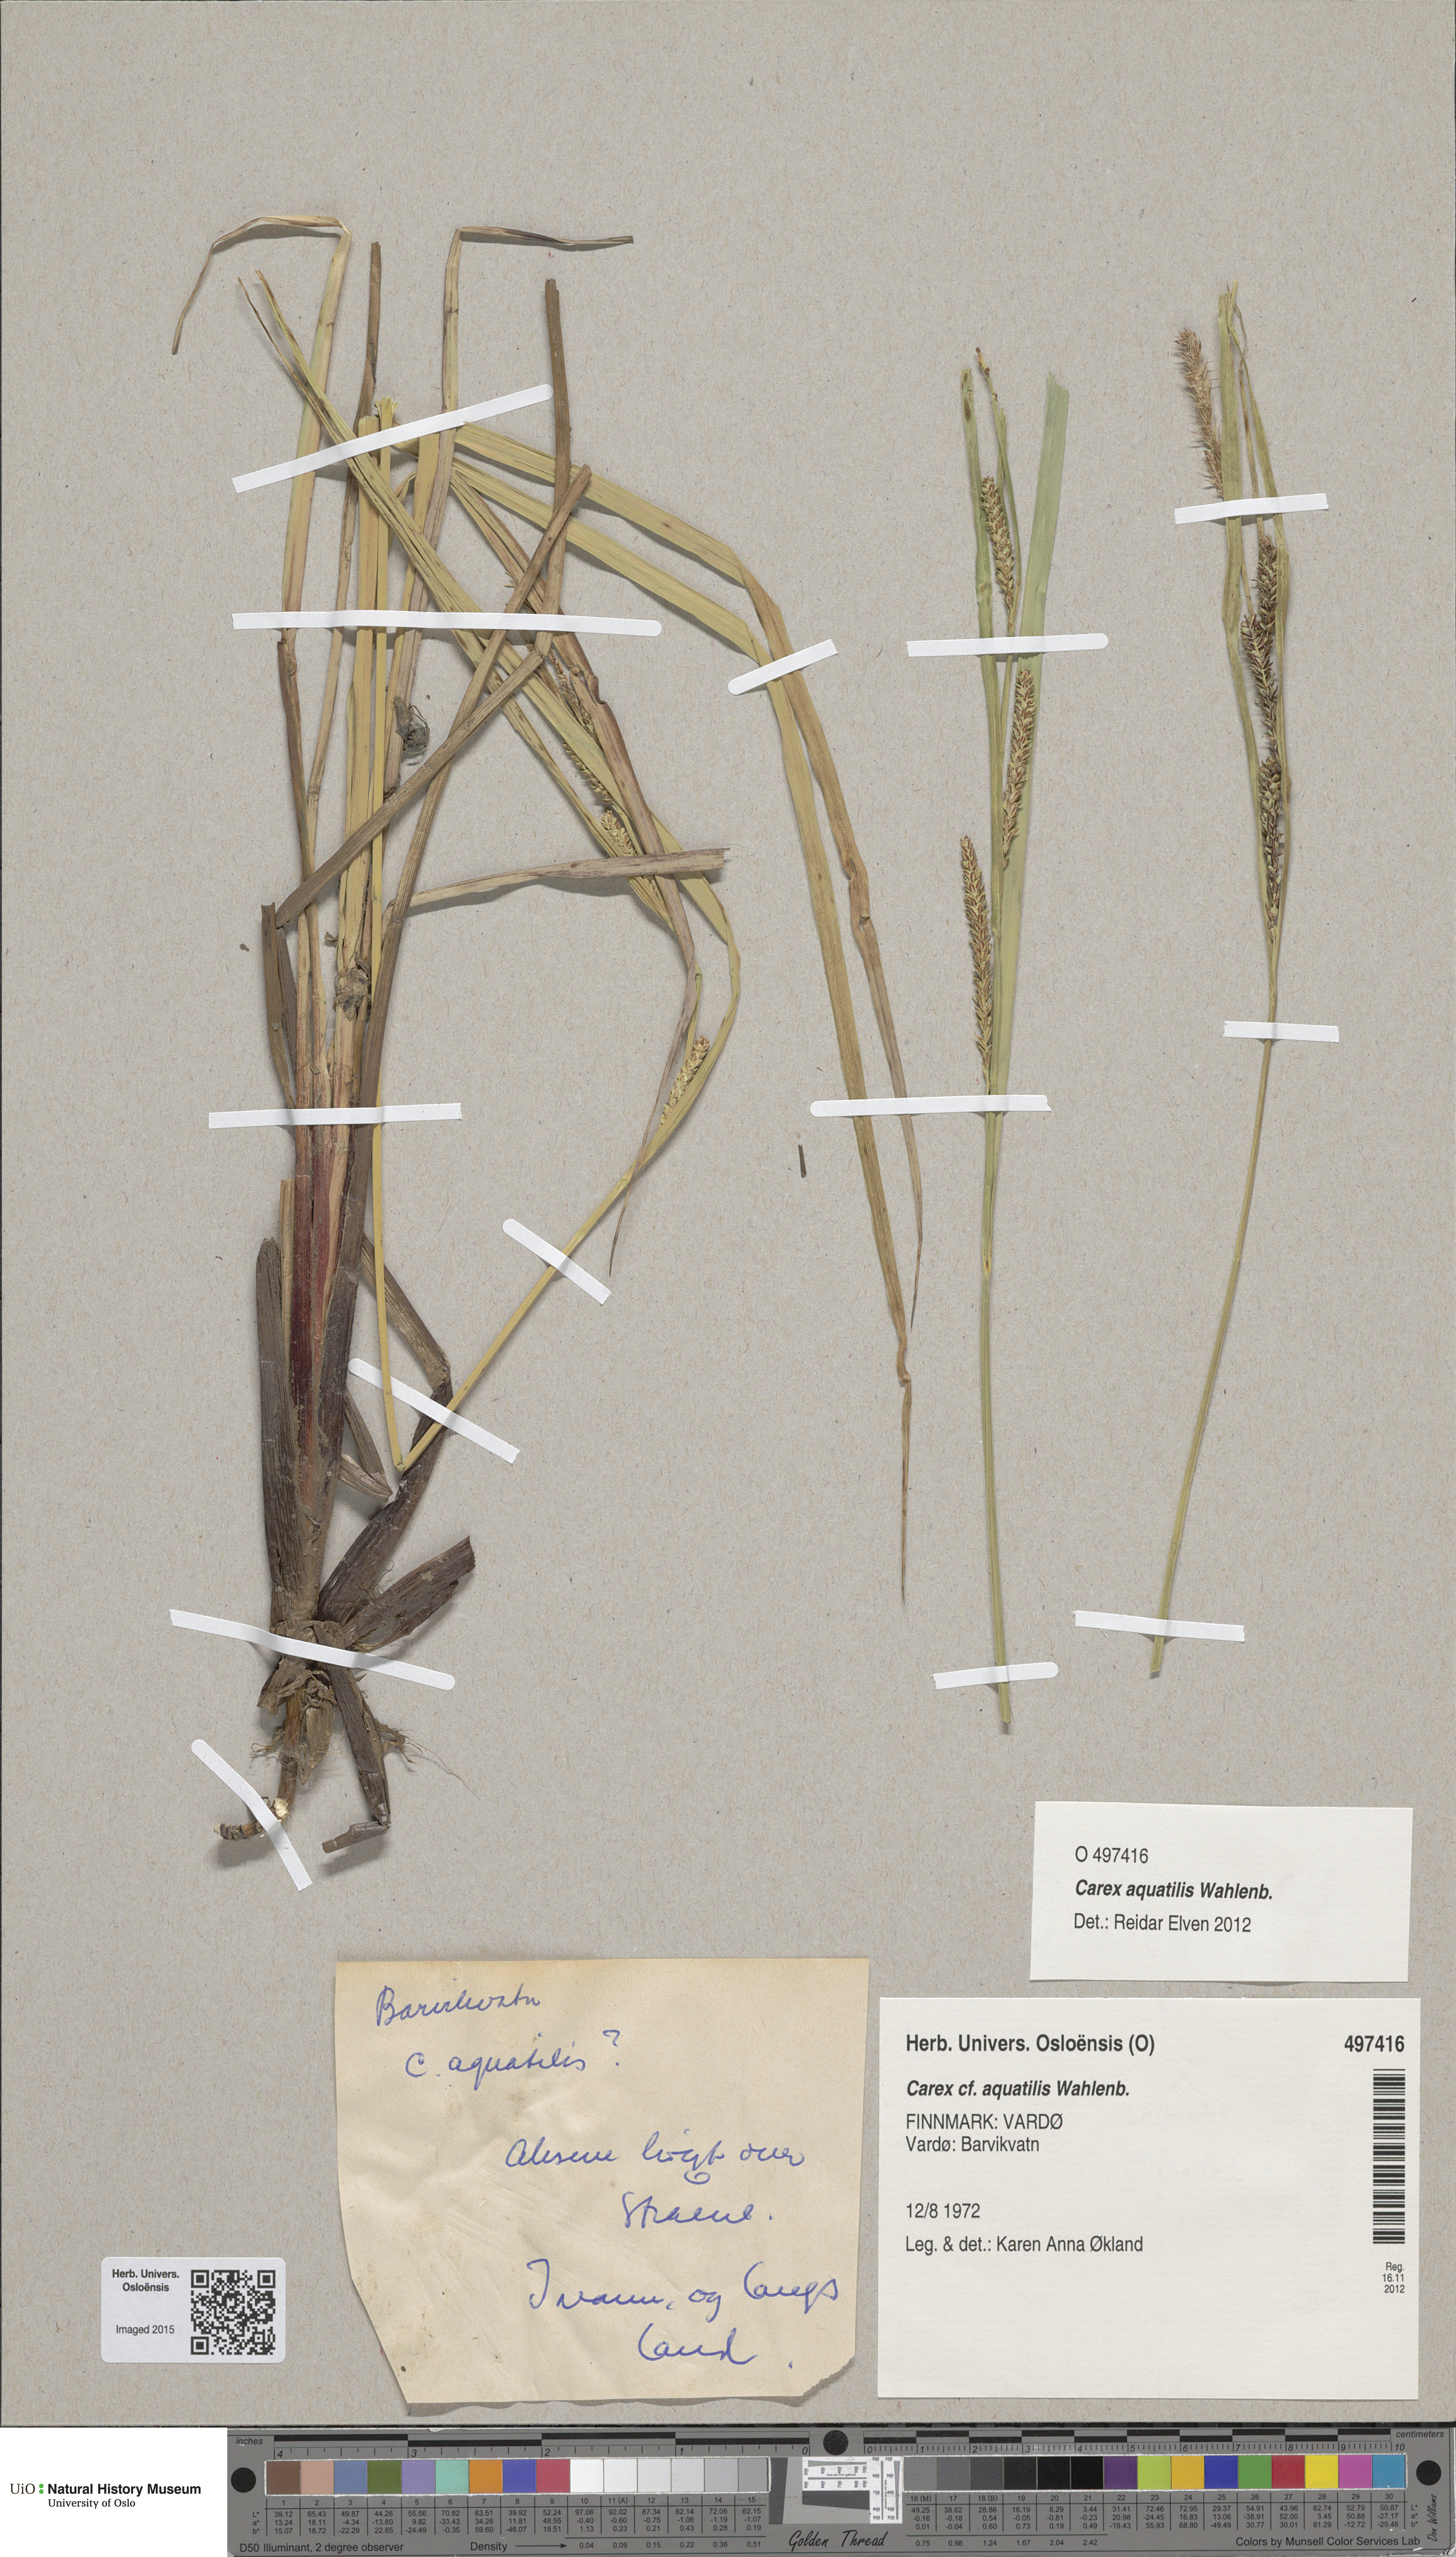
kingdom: Plantae
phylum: Tracheophyta
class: Liliopsida
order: Poales
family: Cyperaceae
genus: Carex
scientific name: Carex aquatilis
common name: Water sedge
